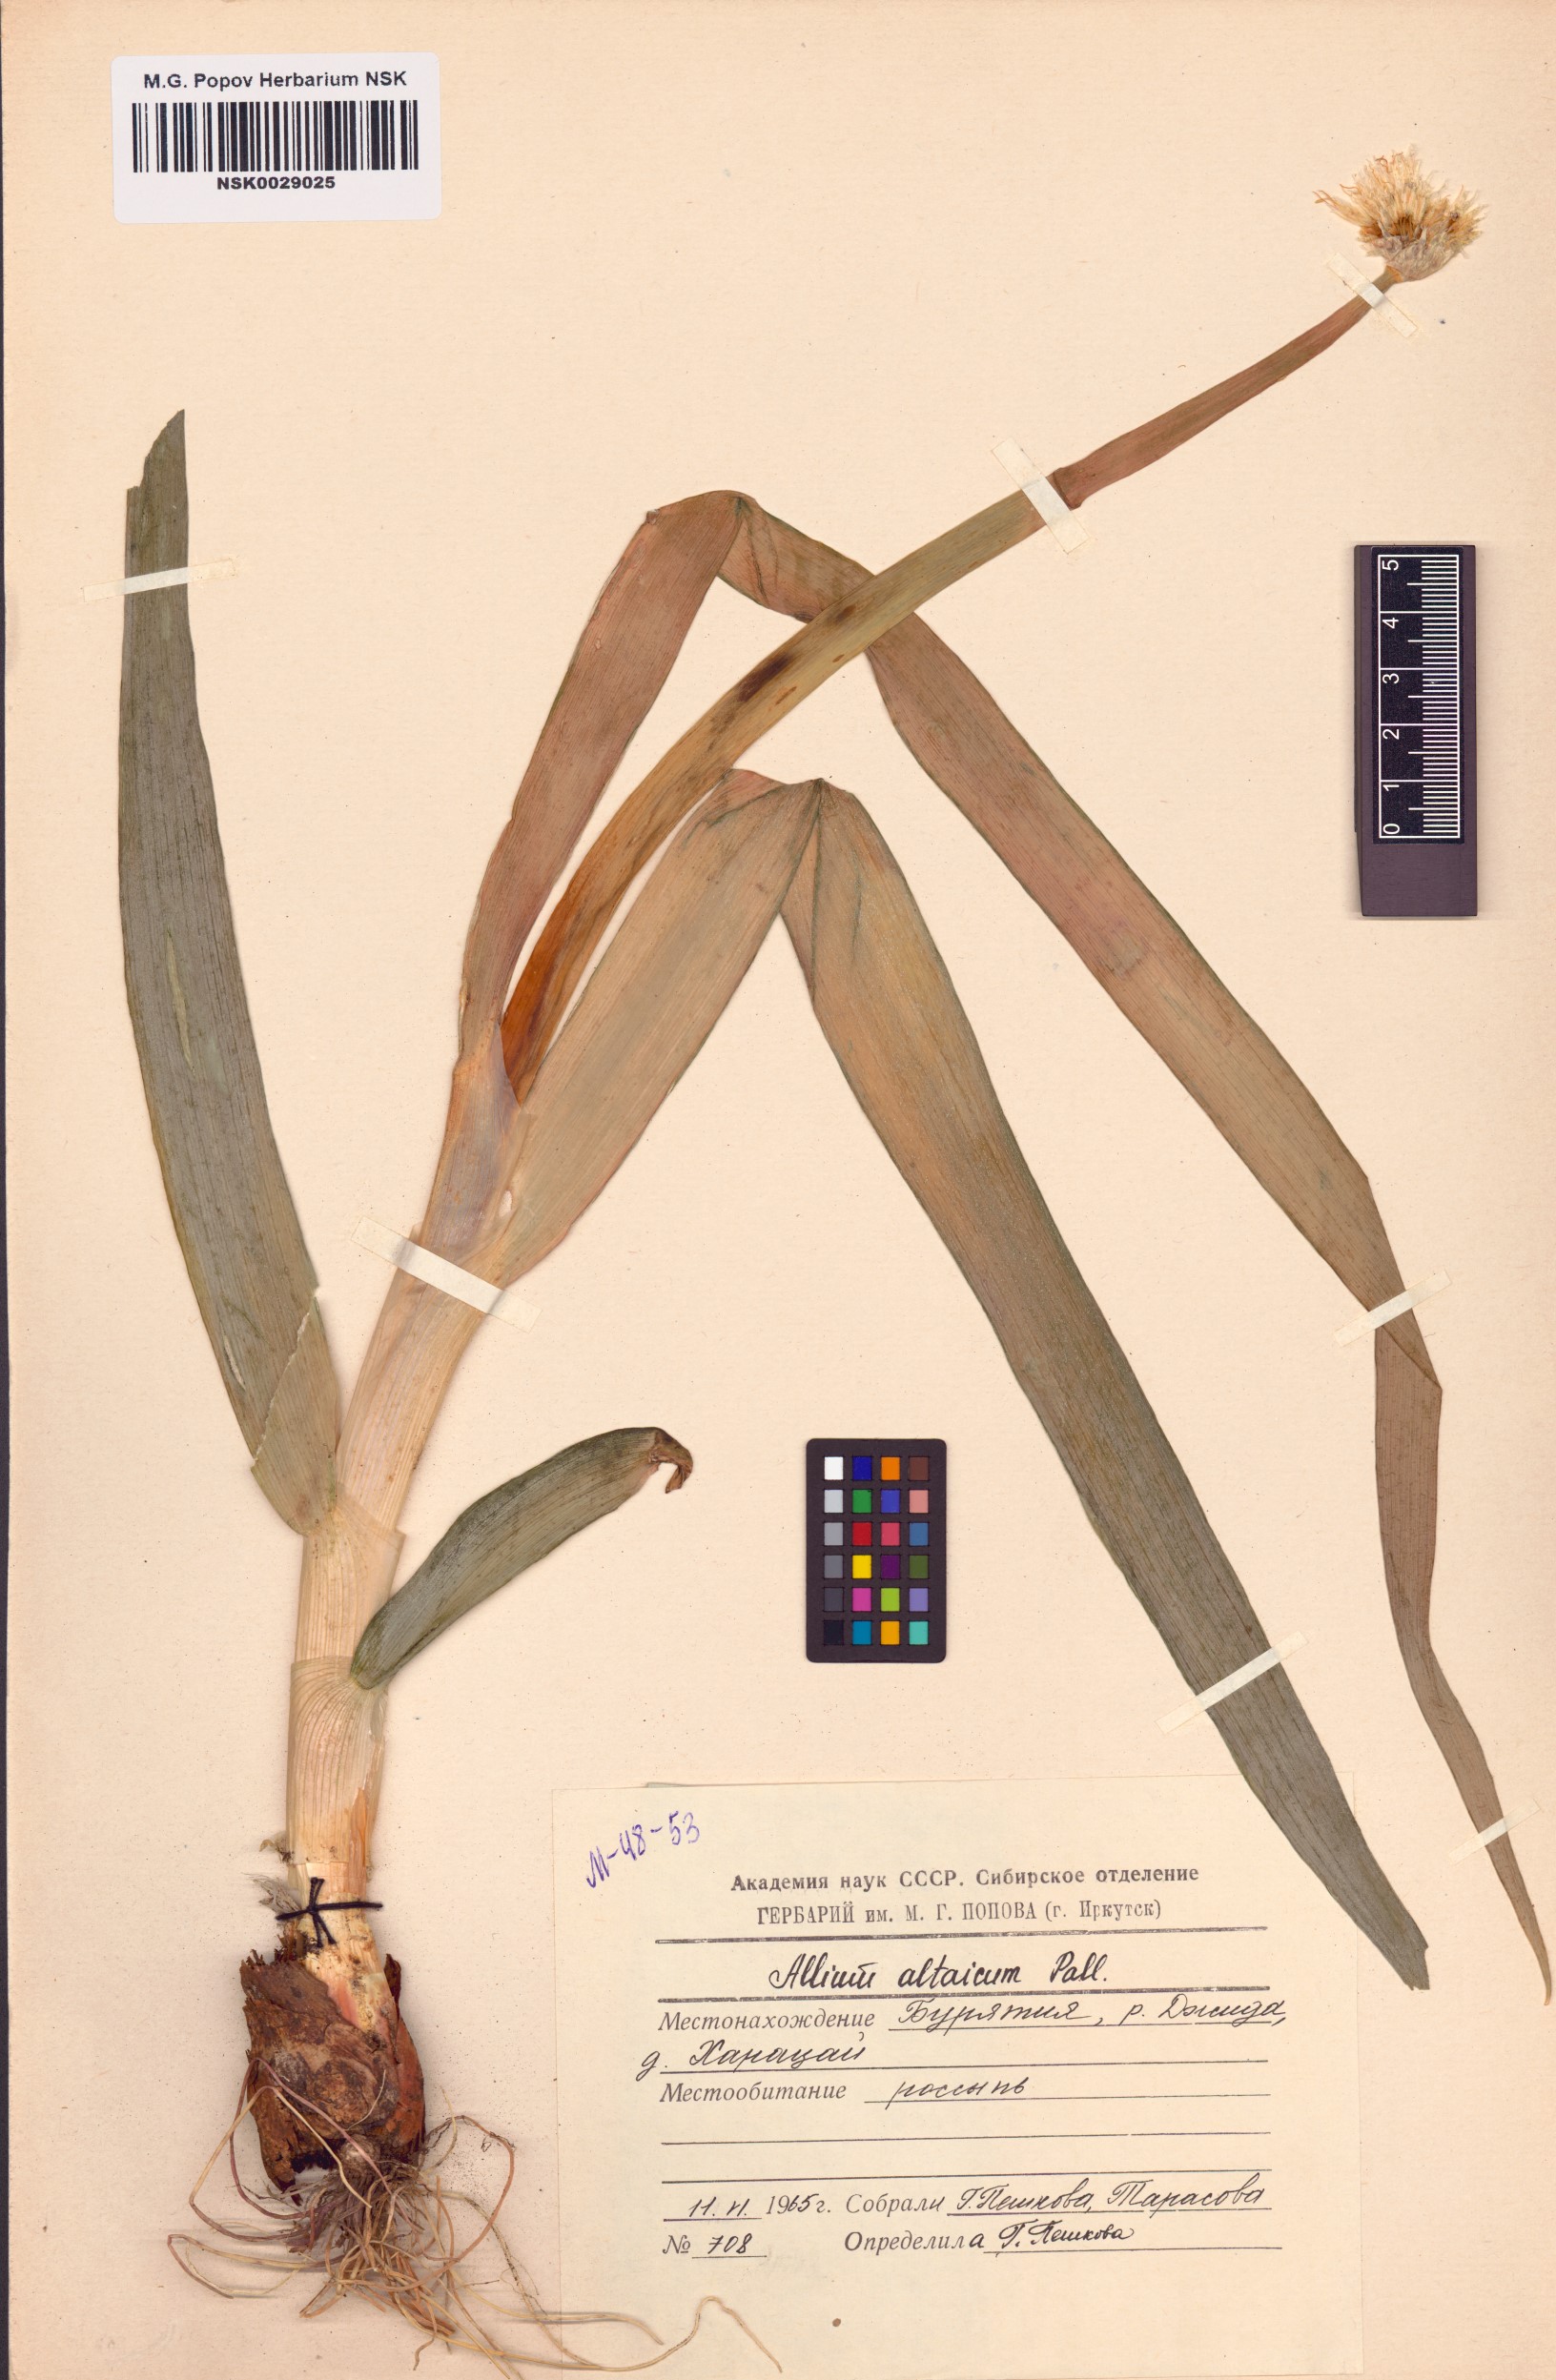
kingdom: Plantae
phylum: Tracheophyta
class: Liliopsida
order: Asparagales
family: Amaryllidaceae
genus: Allium
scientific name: Allium altaicum
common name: Altai onion
